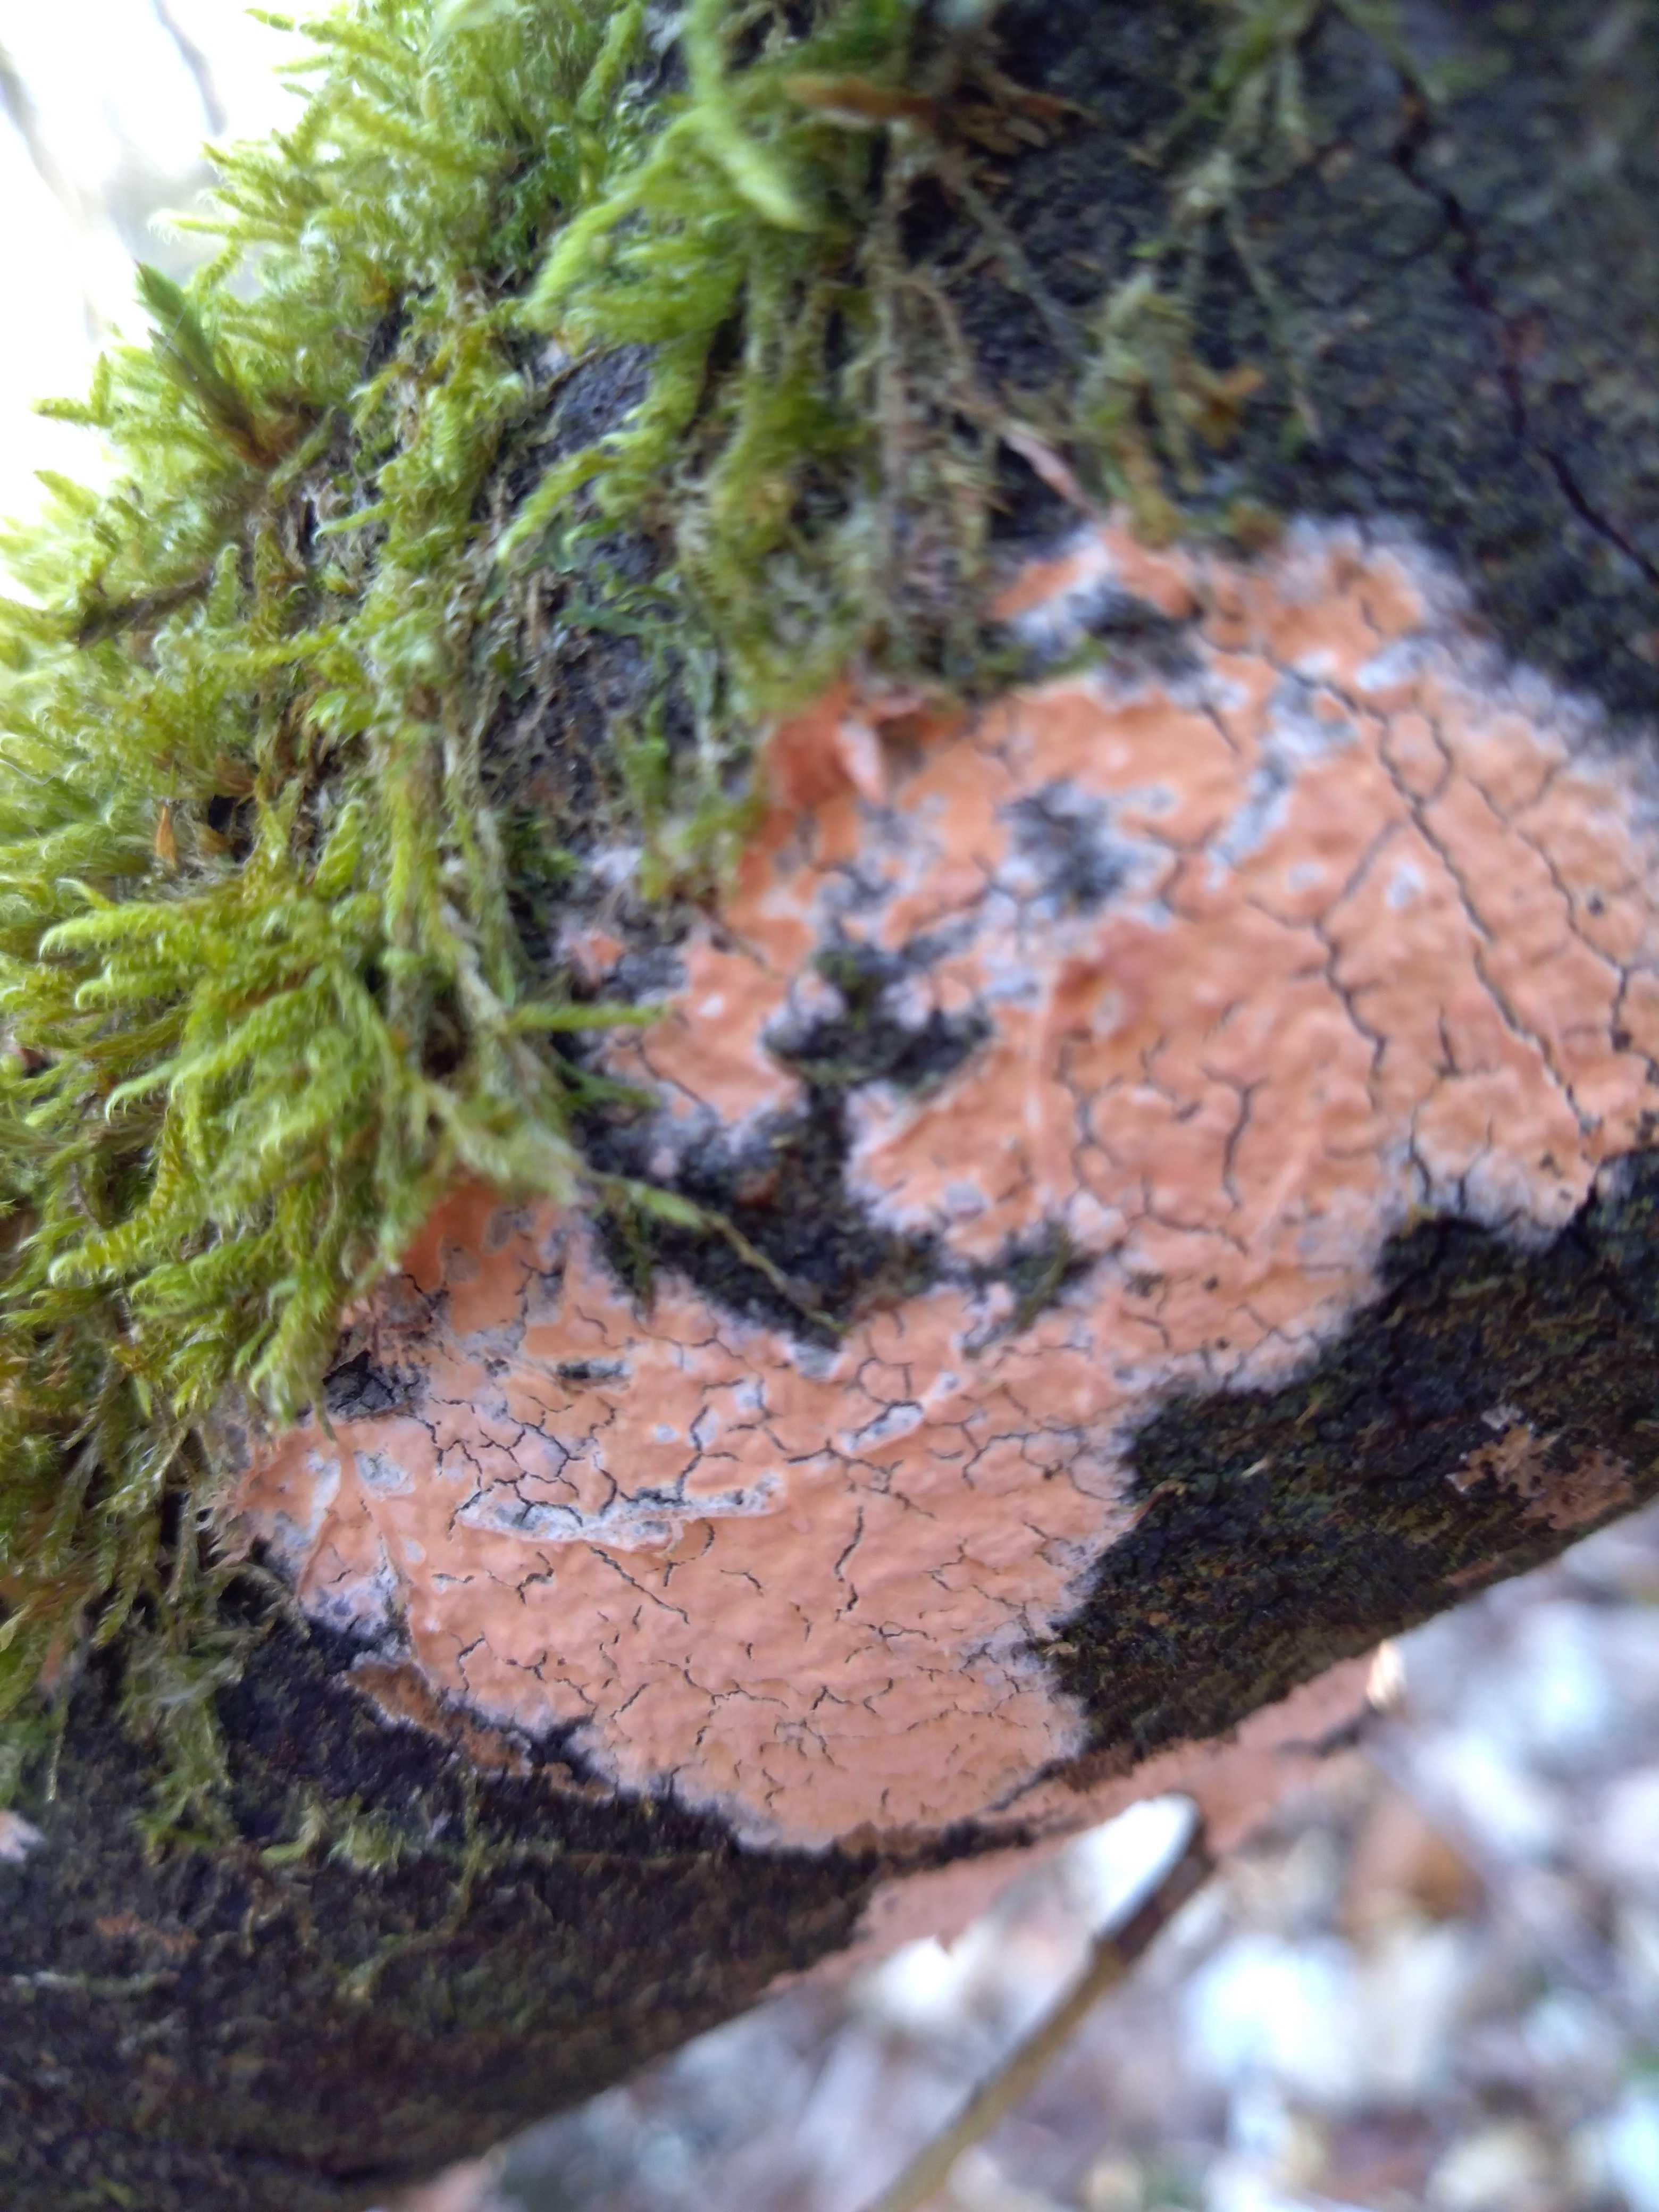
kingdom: Fungi
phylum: Basidiomycota
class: Agaricomycetes
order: Russulales
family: Peniophoraceae
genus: Peniophora
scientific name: Peniophora incarnata
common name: laksefarvet voksskind
